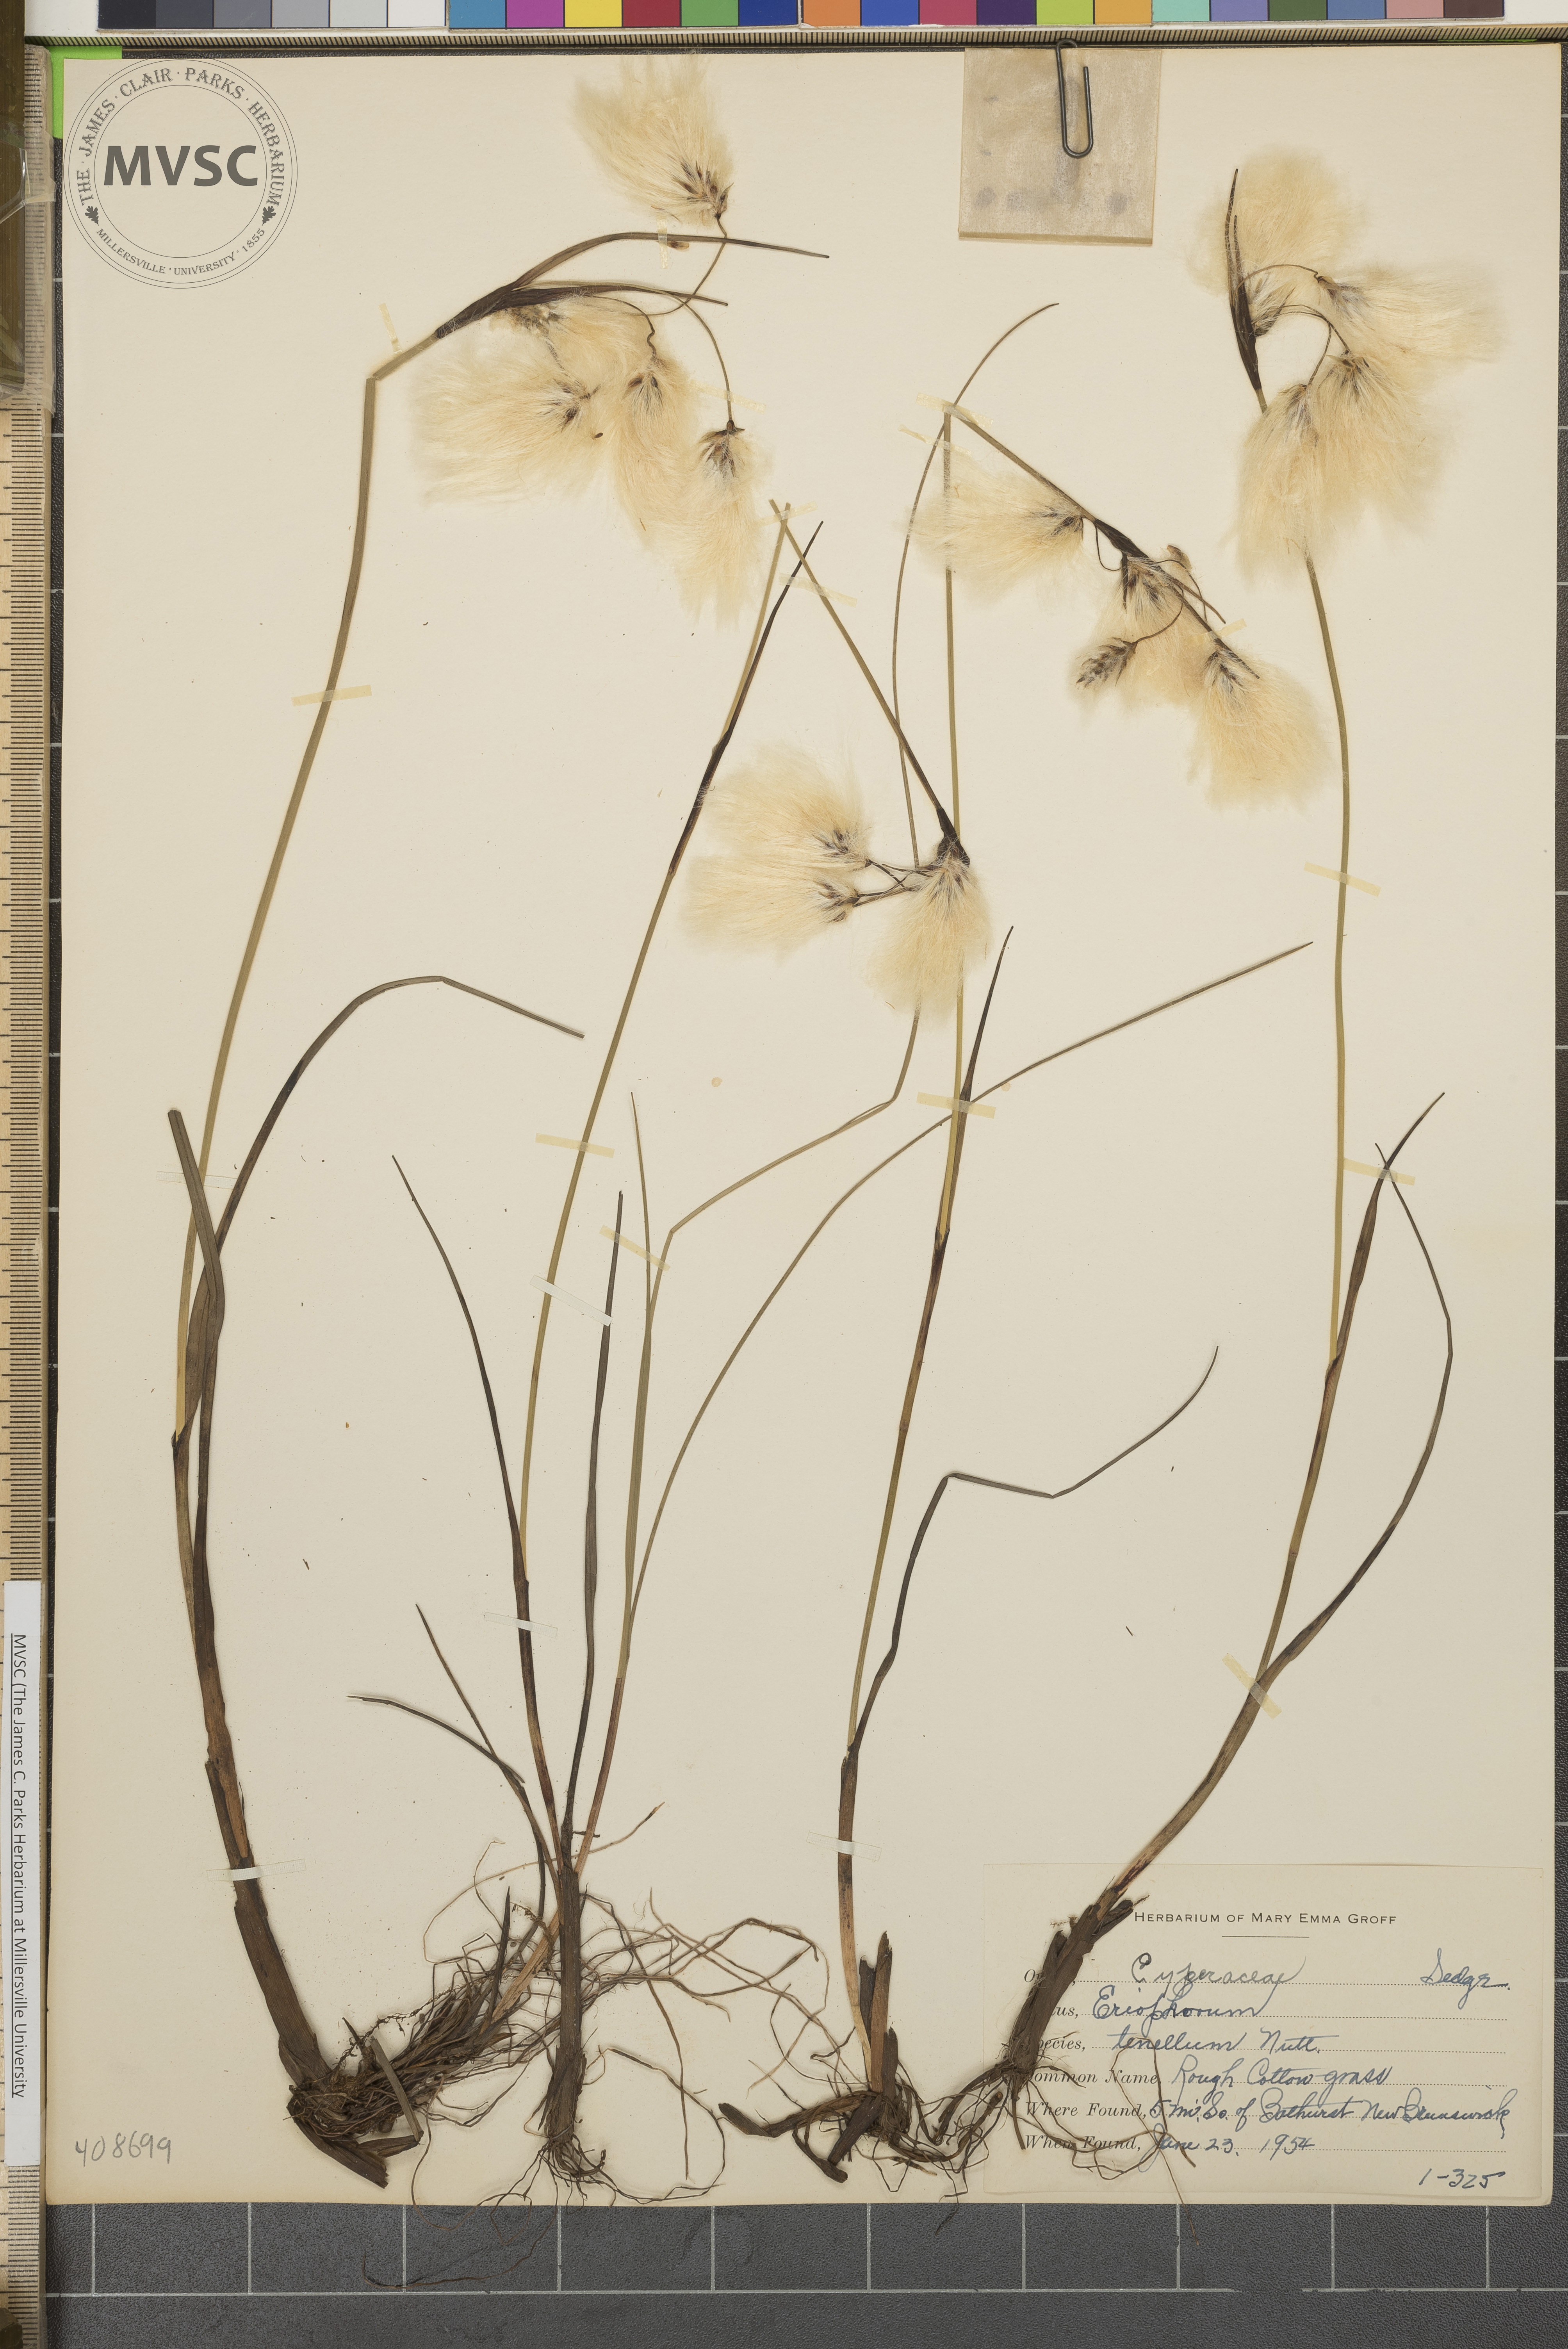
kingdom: Plantae
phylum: Tracheophyta
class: Liliopsida
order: Poales
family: Cyperaceae
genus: Eriophorum
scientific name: Eriophorum tenellum
